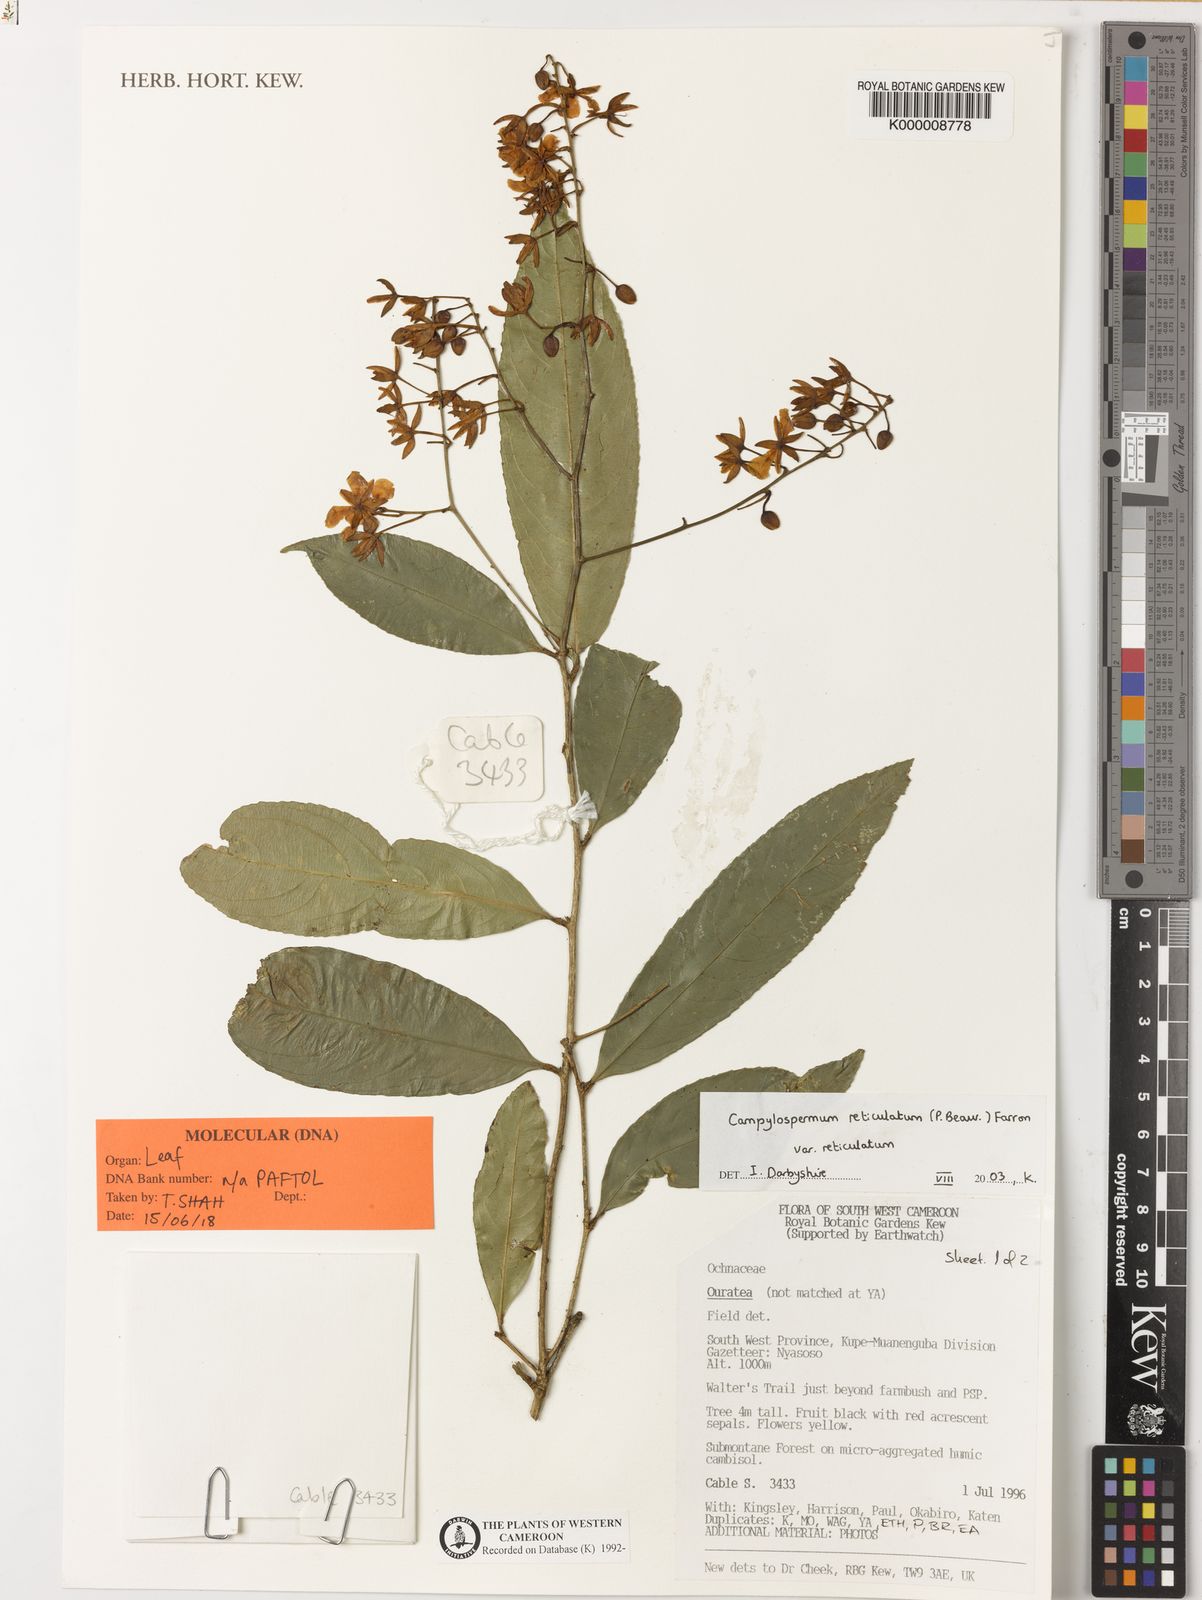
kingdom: Plantae
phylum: Tracheophyta
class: Magnoliopsida
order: Malpighiales
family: Ochnaceae
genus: Campylospermum
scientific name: Campylospermum reticulatum
